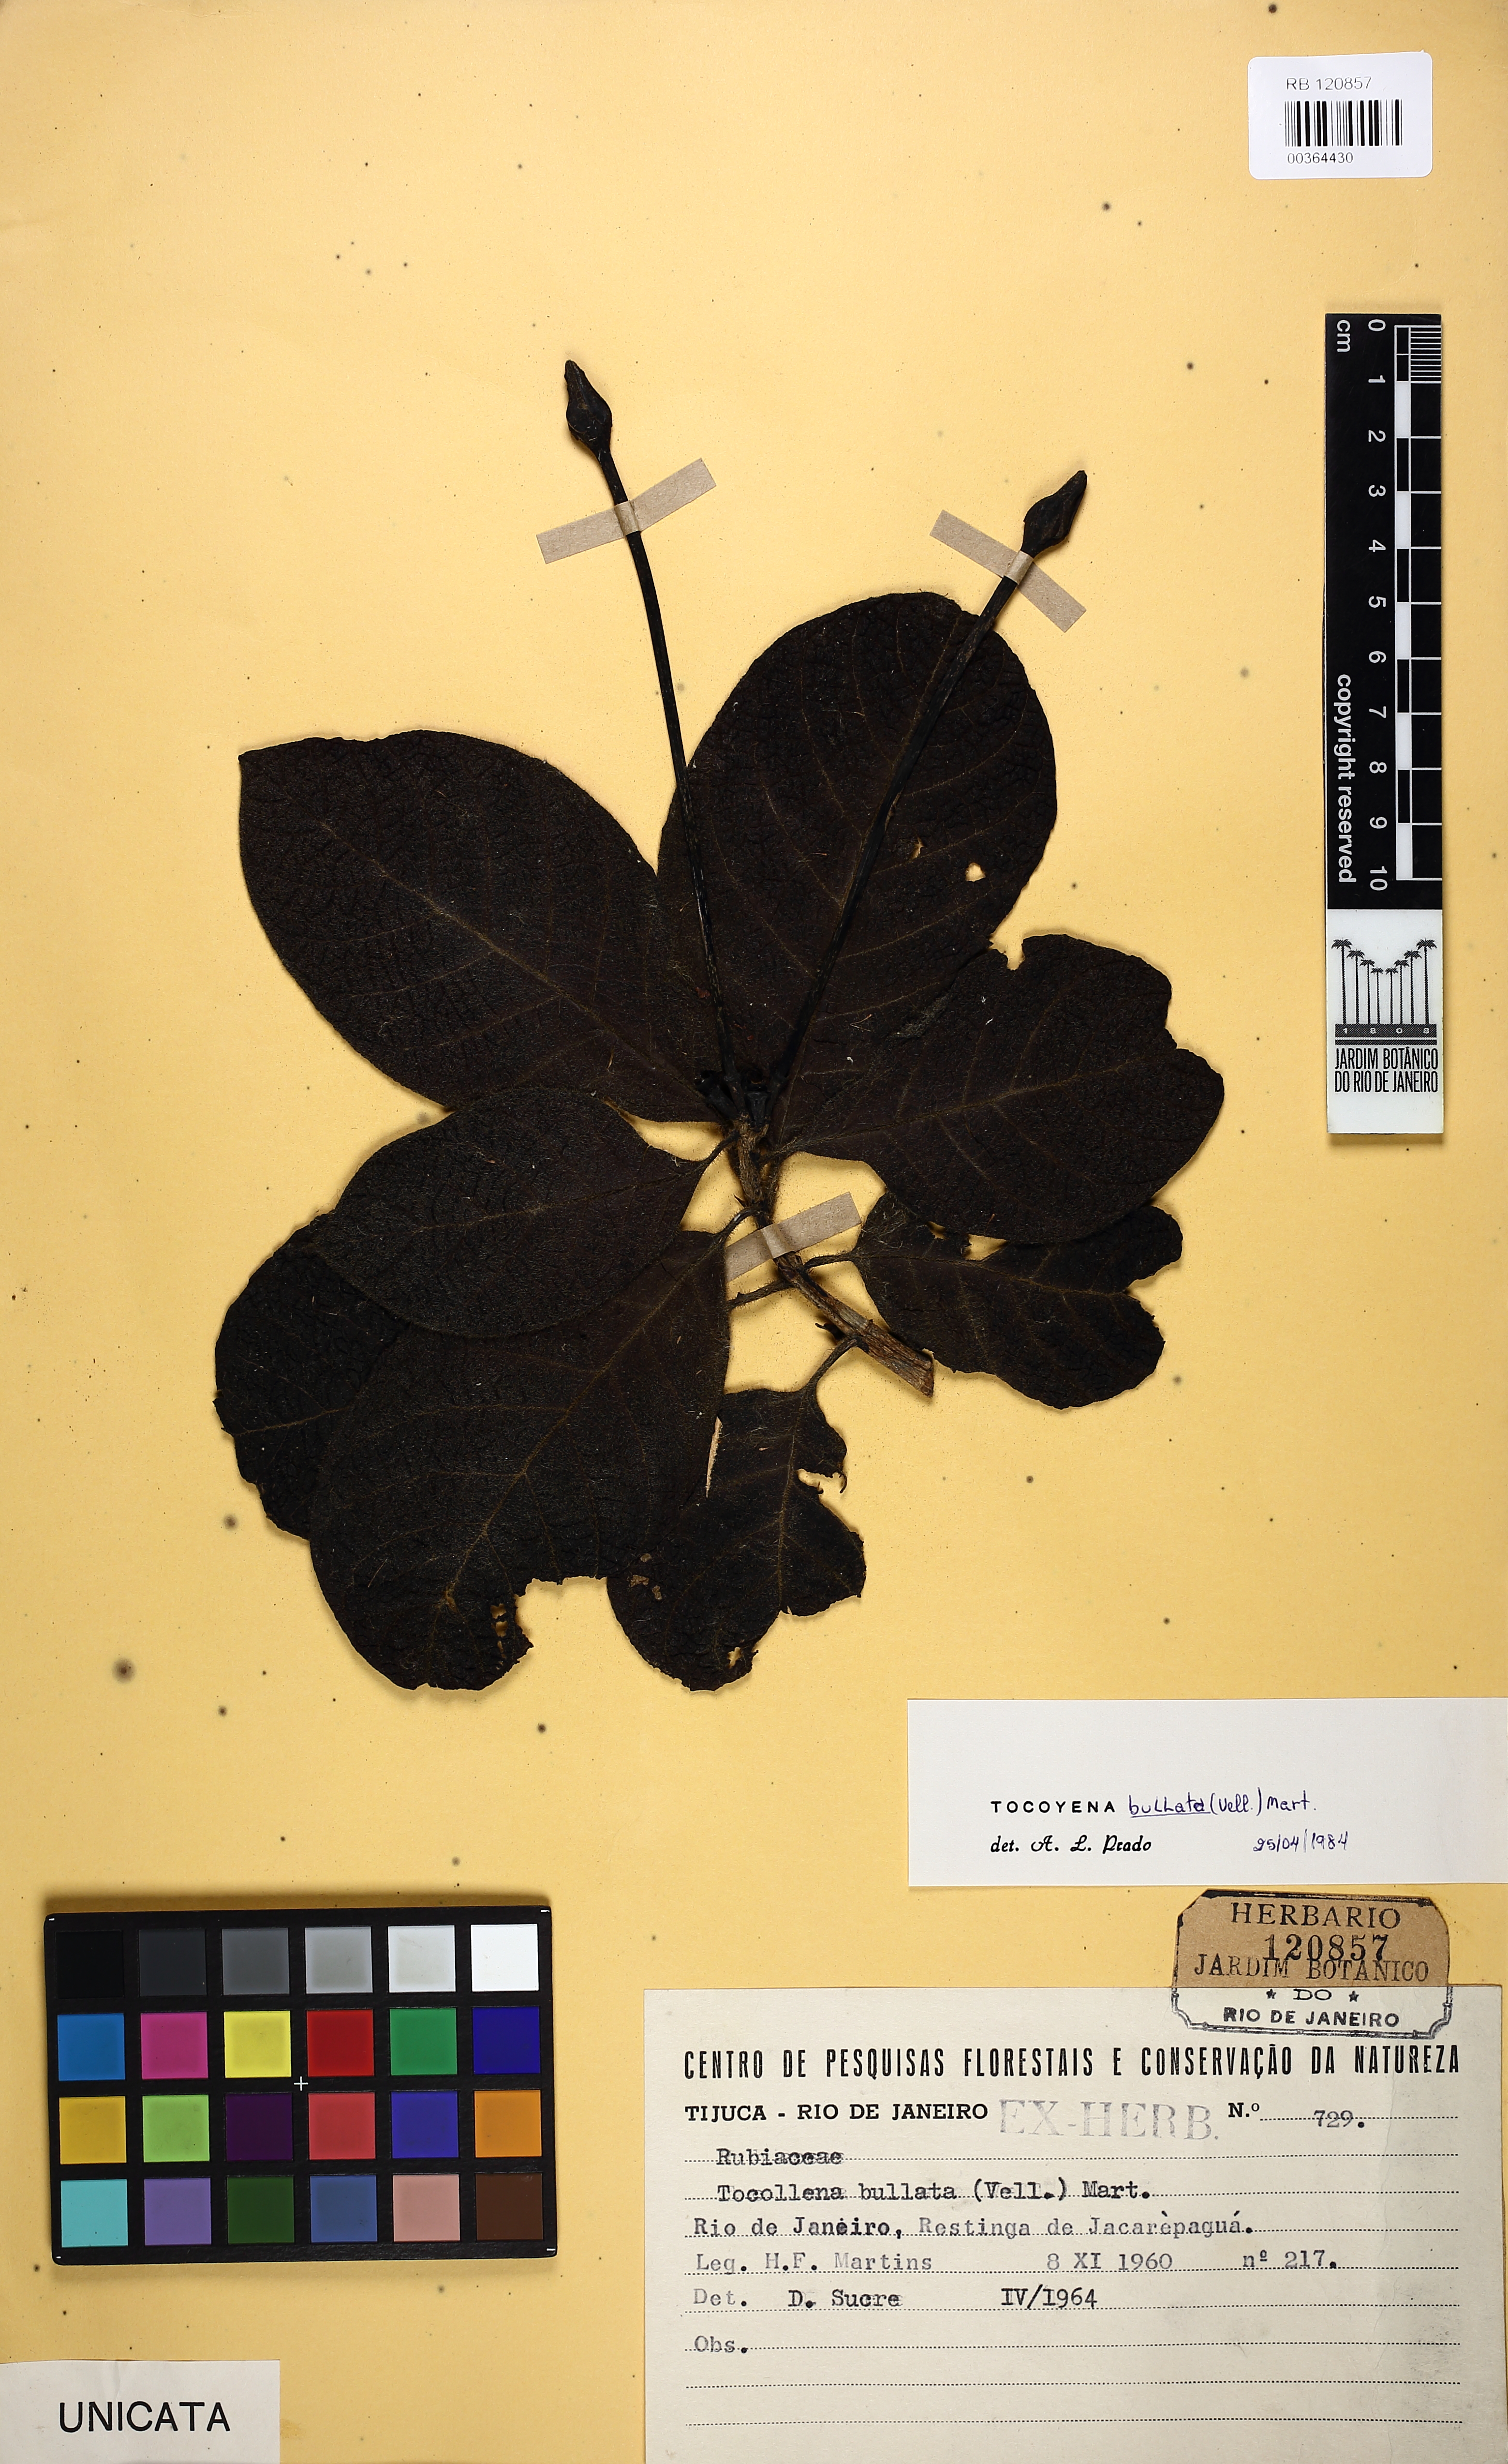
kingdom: Plantae
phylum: Tracheophyta
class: Magnoliopsida
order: Gentianales
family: Rubiaceae
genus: Tocoyena
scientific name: Tocoyena bullata
